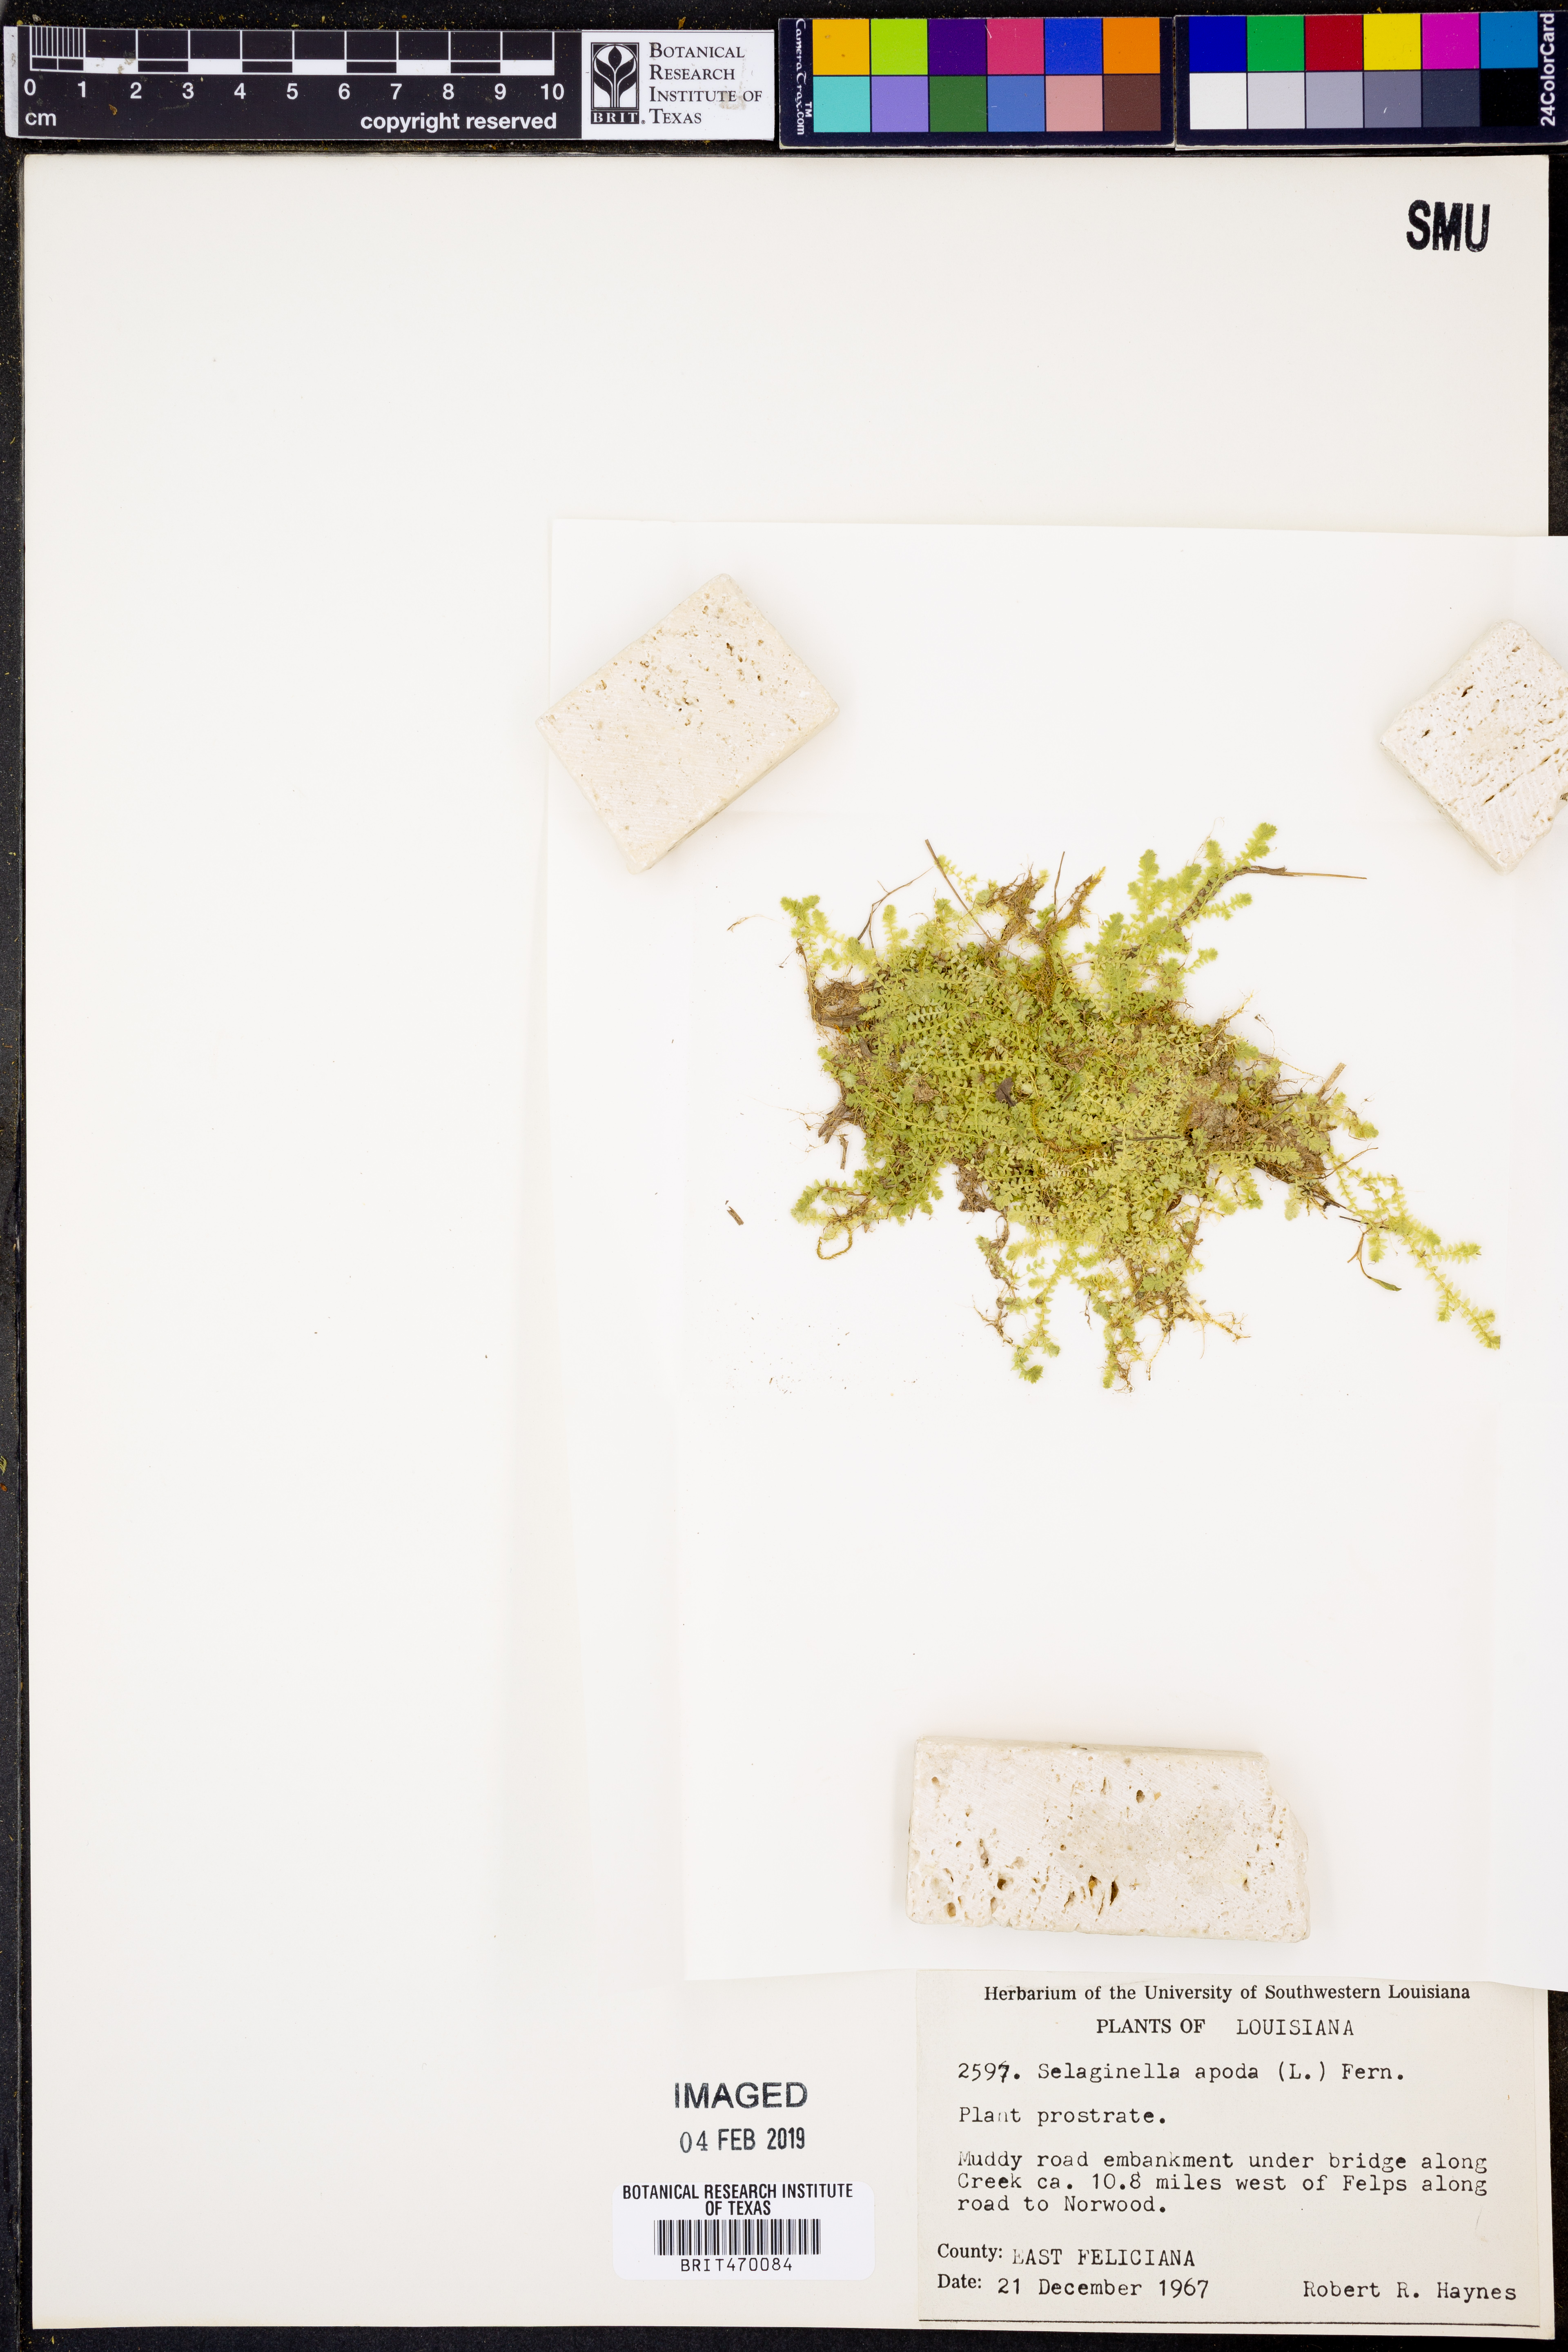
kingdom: Plantae
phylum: Tracheophyta
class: Lycopodiopsida
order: Selaginellales
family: Selaginellaceae
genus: Selaginella
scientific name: Selaginella apoda
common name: Creeping spikemoss
